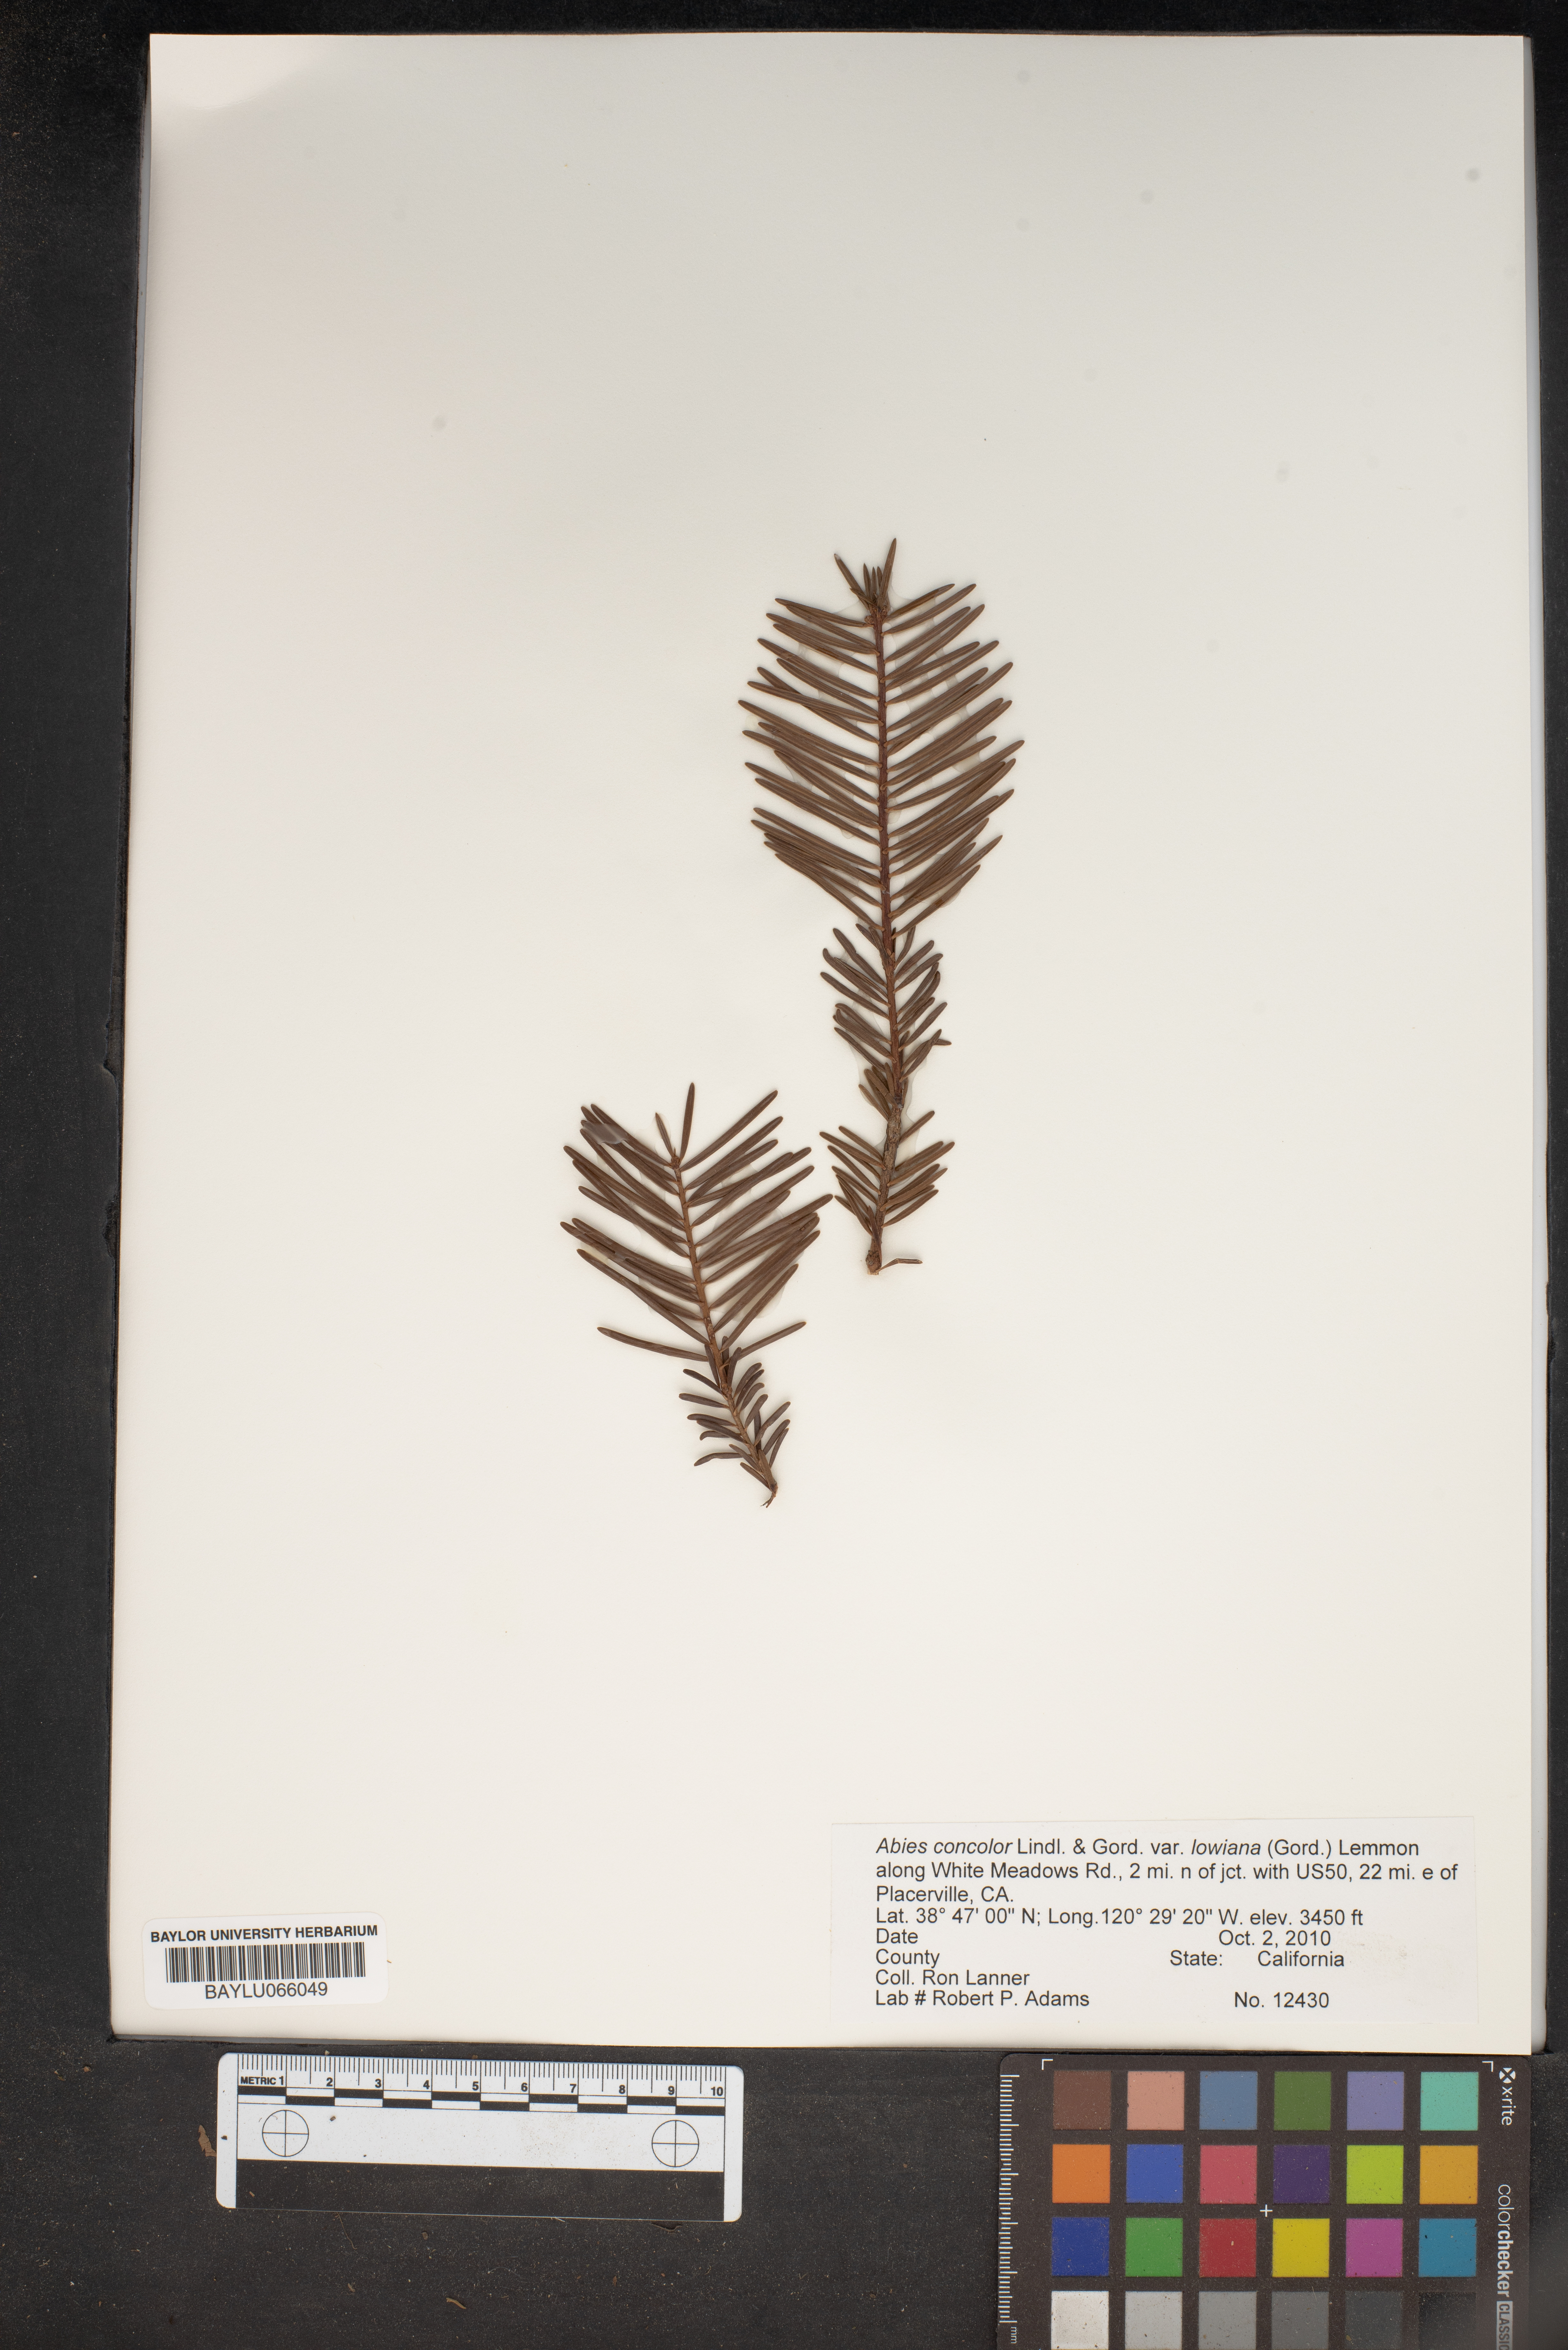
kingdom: Plantae
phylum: Tracheophyta
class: Pinopsida
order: Pinales
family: Pinaceae
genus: Abies
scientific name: Abies concolor
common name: Colorado fir
